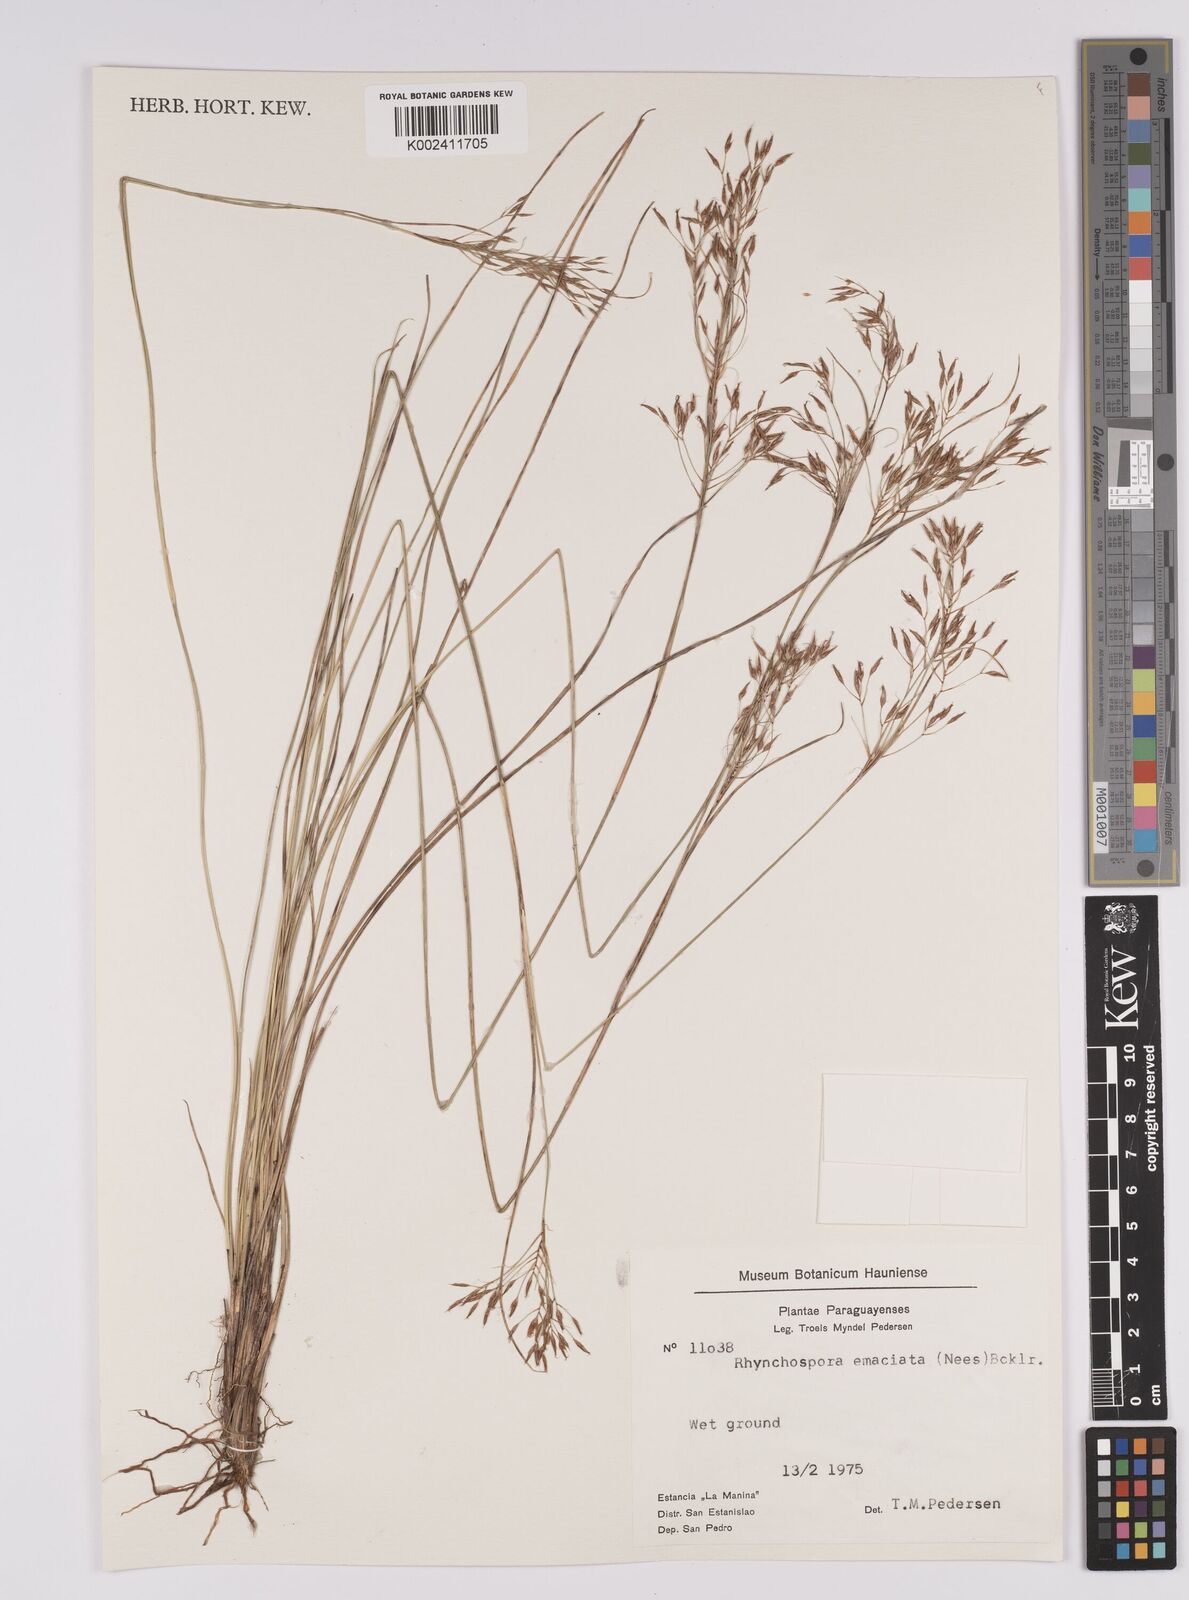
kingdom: Plantae
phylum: Tracheophyta
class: Liliopsida
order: Poales
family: Cyperaceae
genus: Rhynchospora
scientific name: Rhynchospora tenuis
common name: Quill beaksedge
